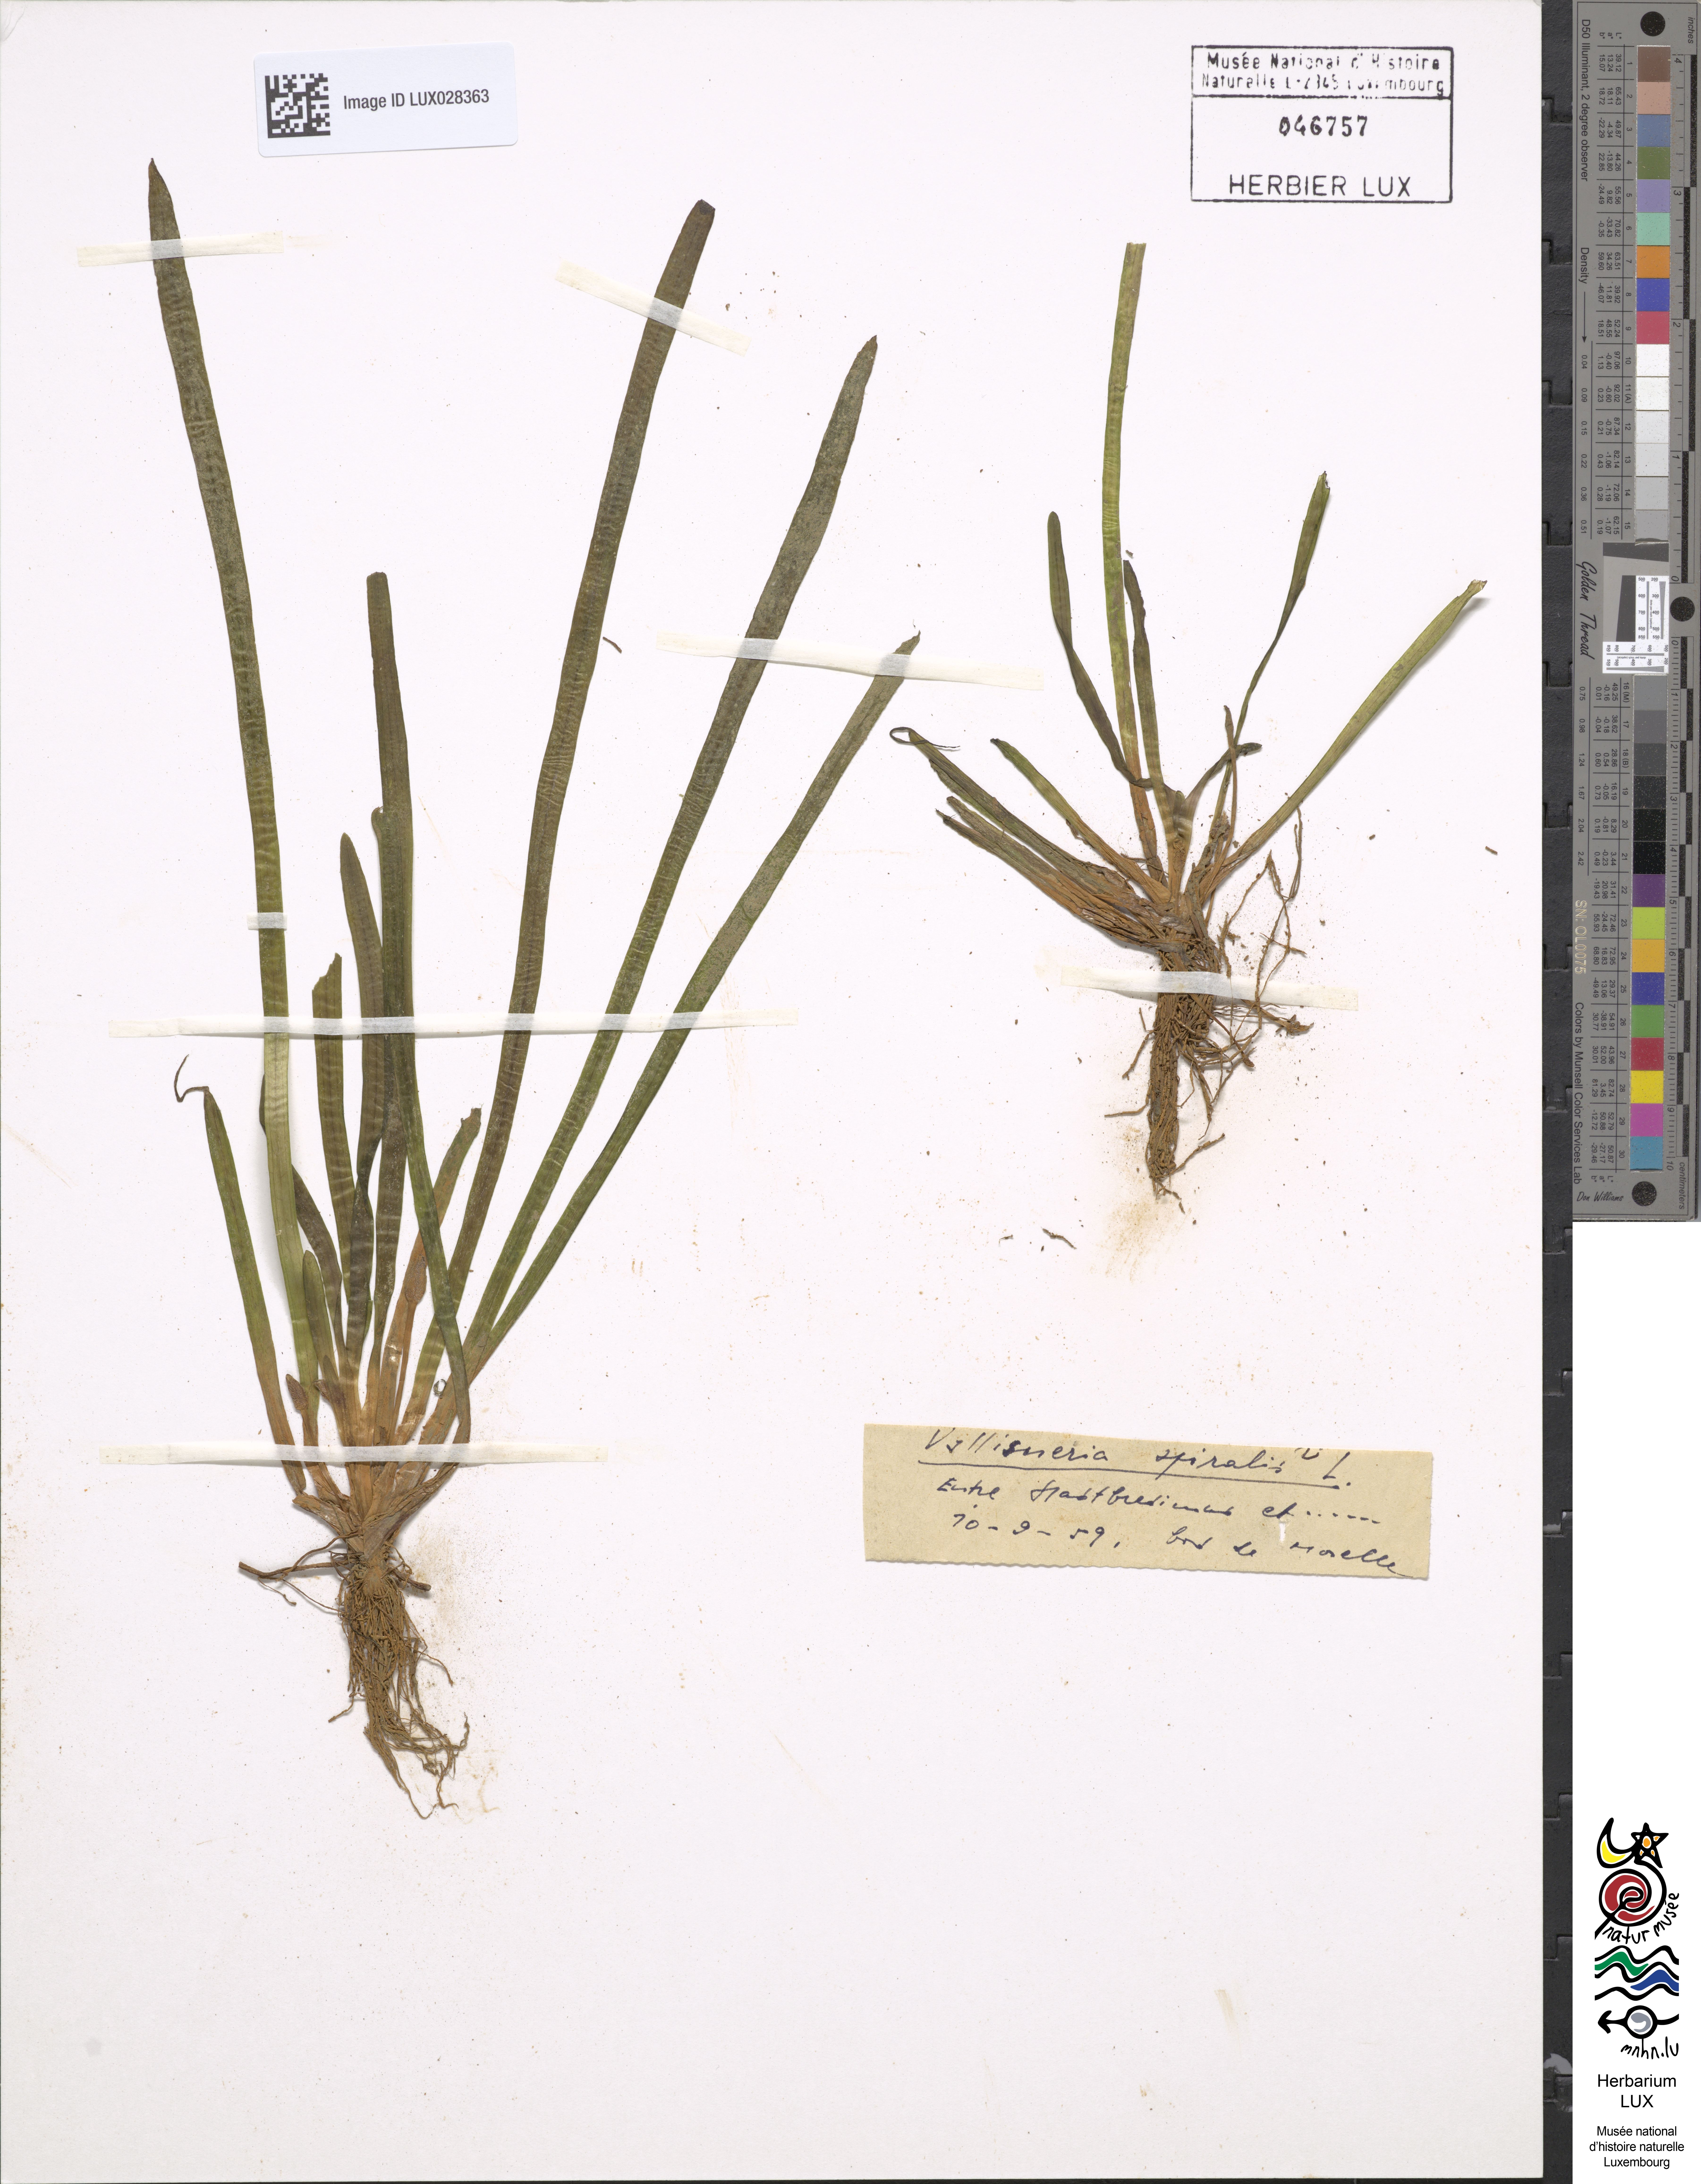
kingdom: Plantae
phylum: Tracheophyta
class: Liliopsida
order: Alismatales
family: Hydrocharitaceae
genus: Vallisneria
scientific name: Vallisneria spiralis
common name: Tapegrass
